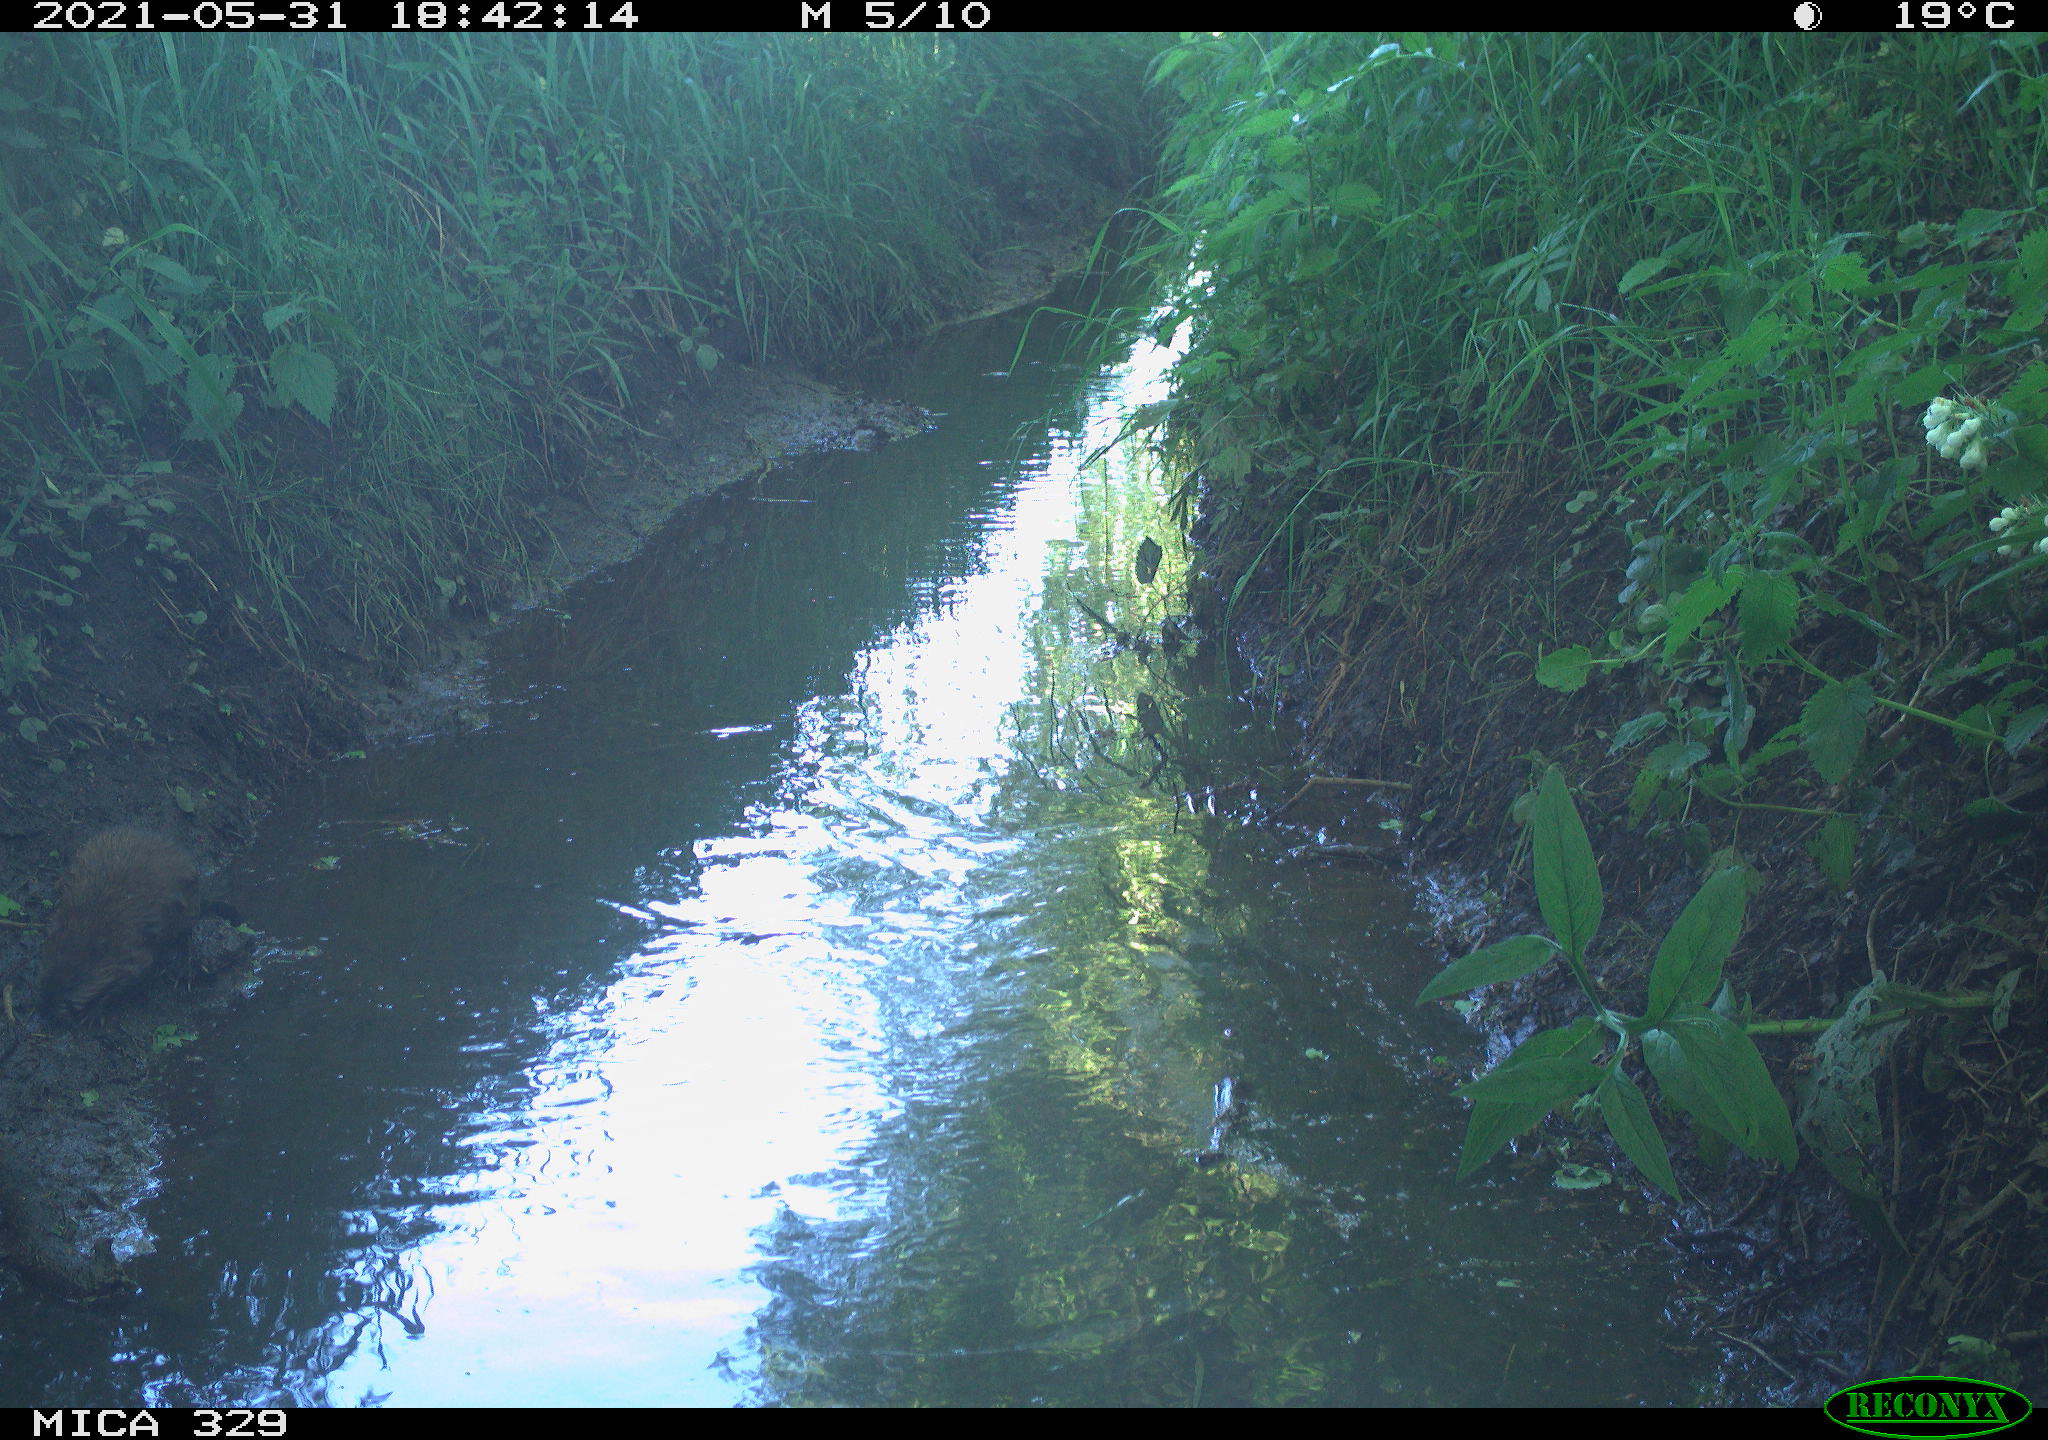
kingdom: Animalia
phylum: Chordata
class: Mammalia
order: Rodentia
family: Cricetidae
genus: Ondatra
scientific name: Ondatra zibethicus
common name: Muskrat
